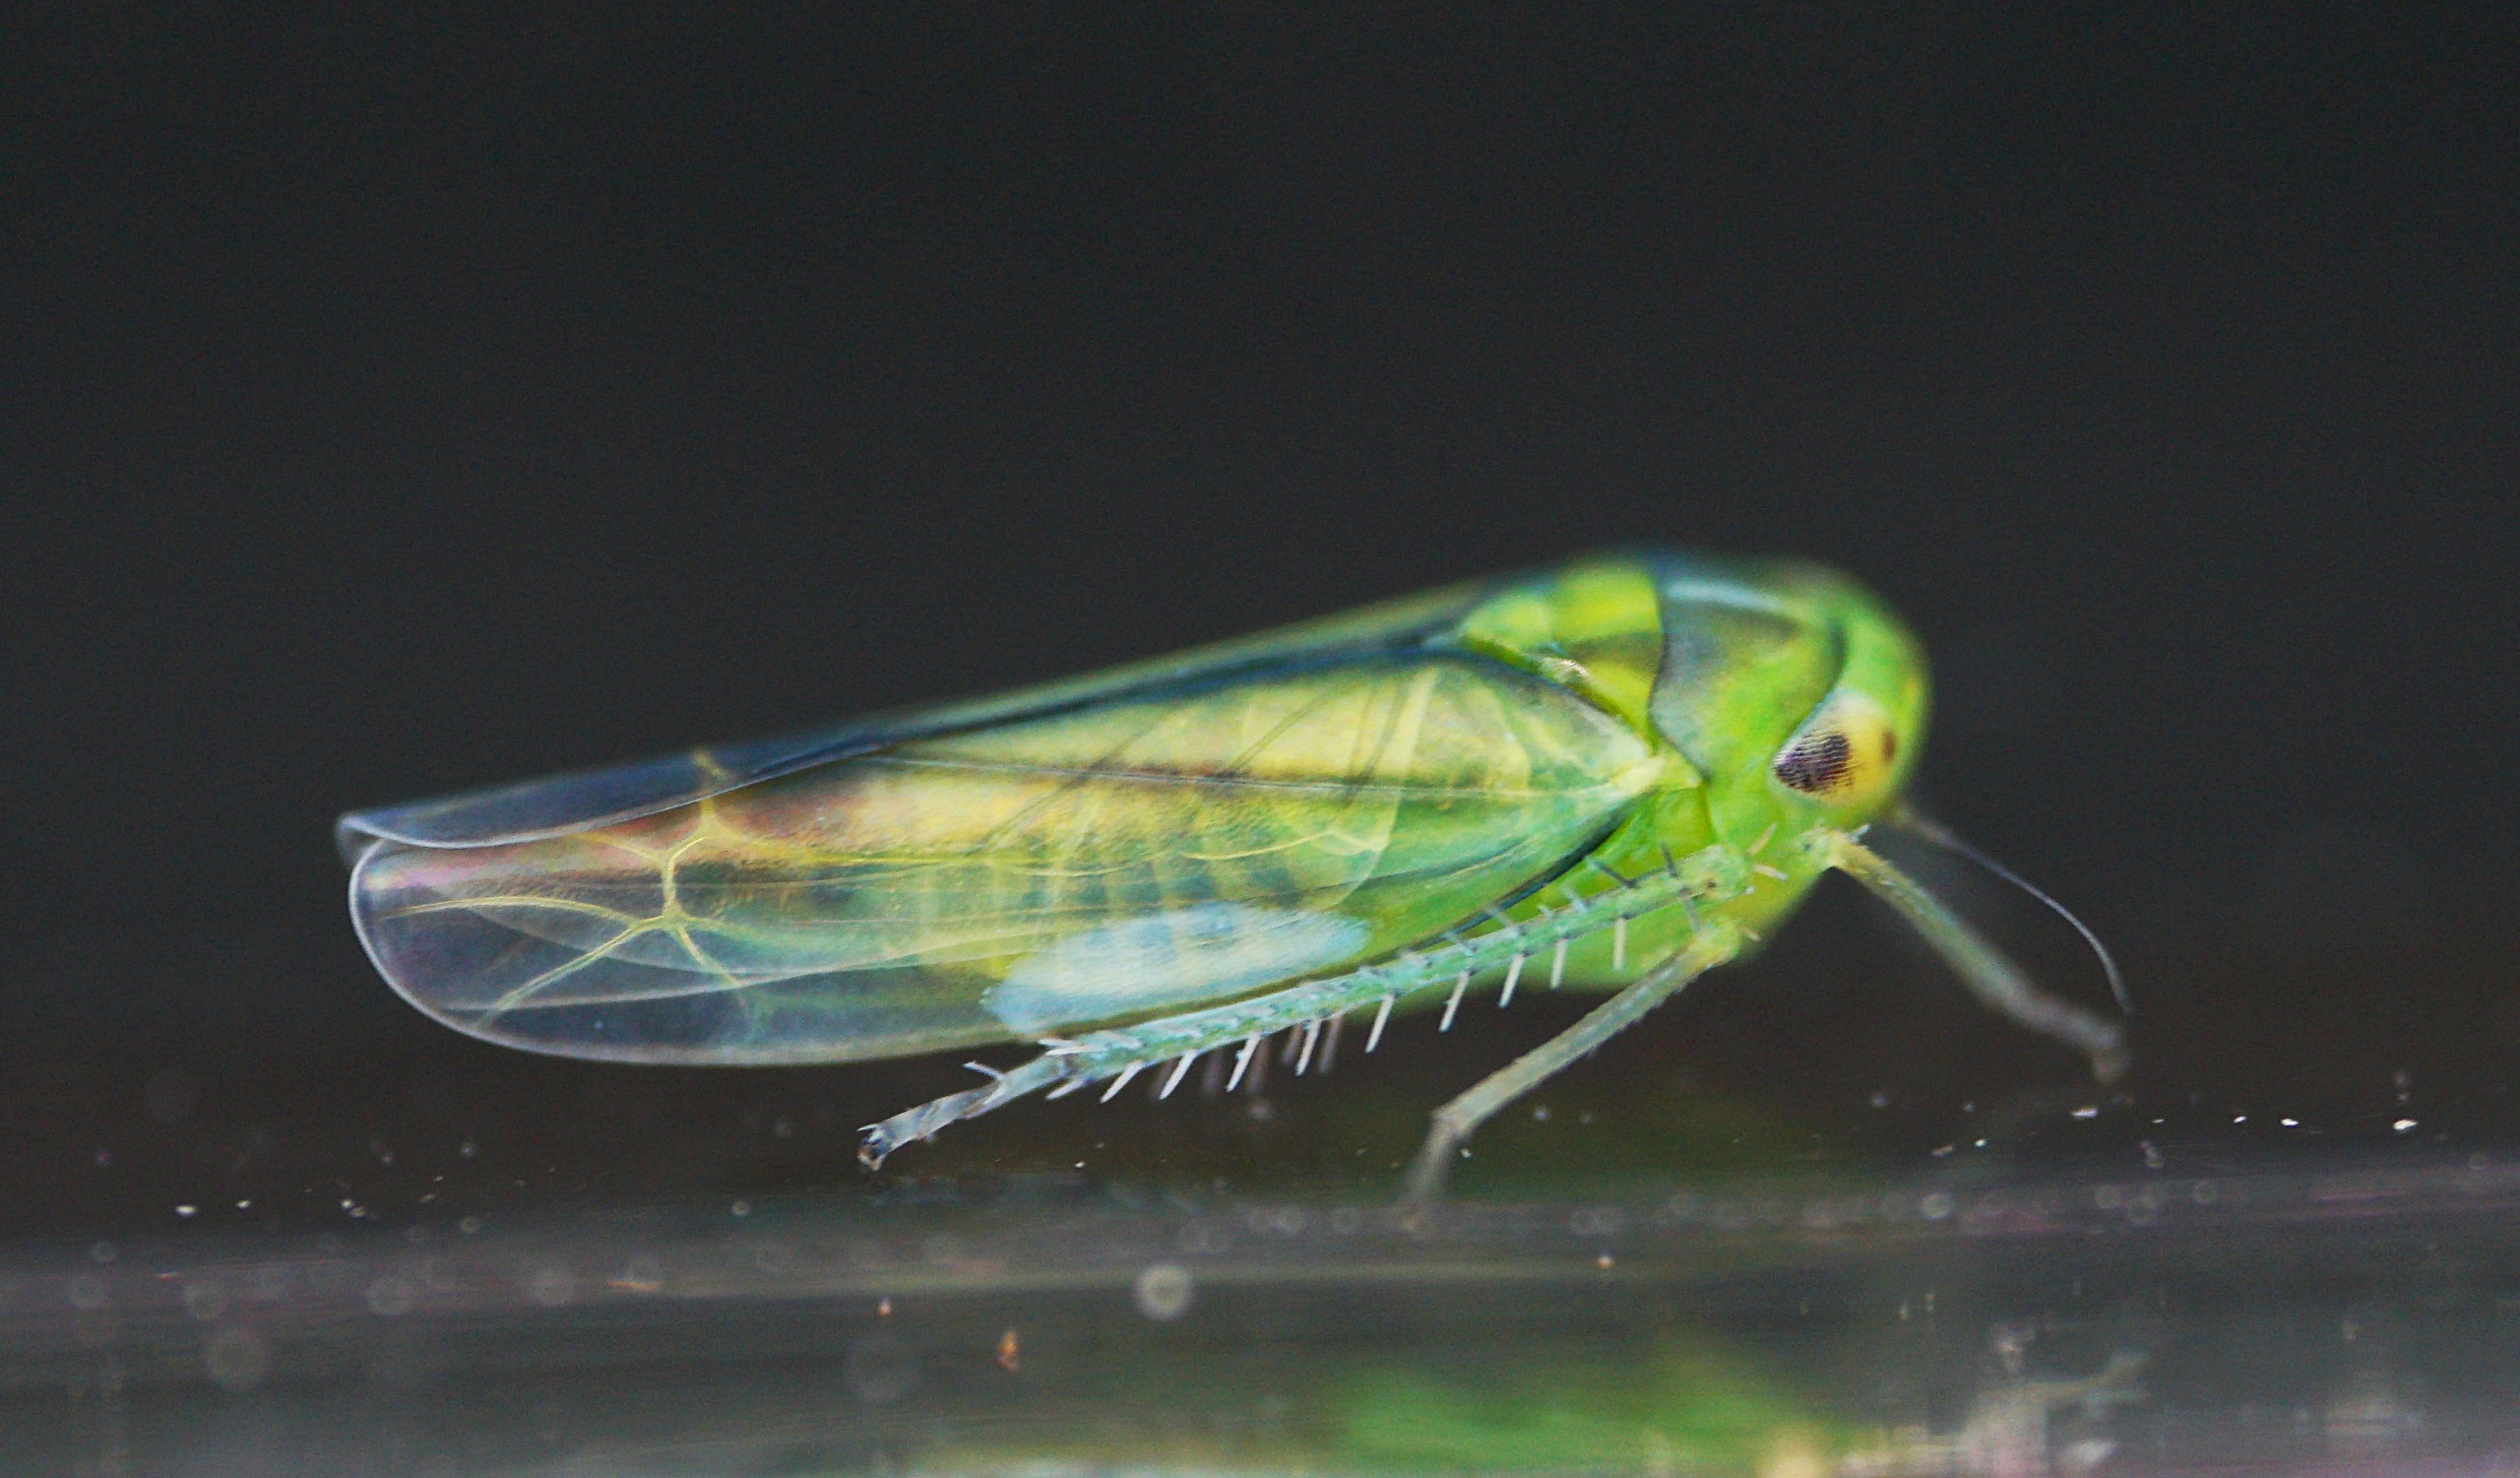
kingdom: Animalia
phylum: Arthropoda
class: Insecta
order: Hemiptera
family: Cicadellidae
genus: Kybos
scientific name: Kybos
